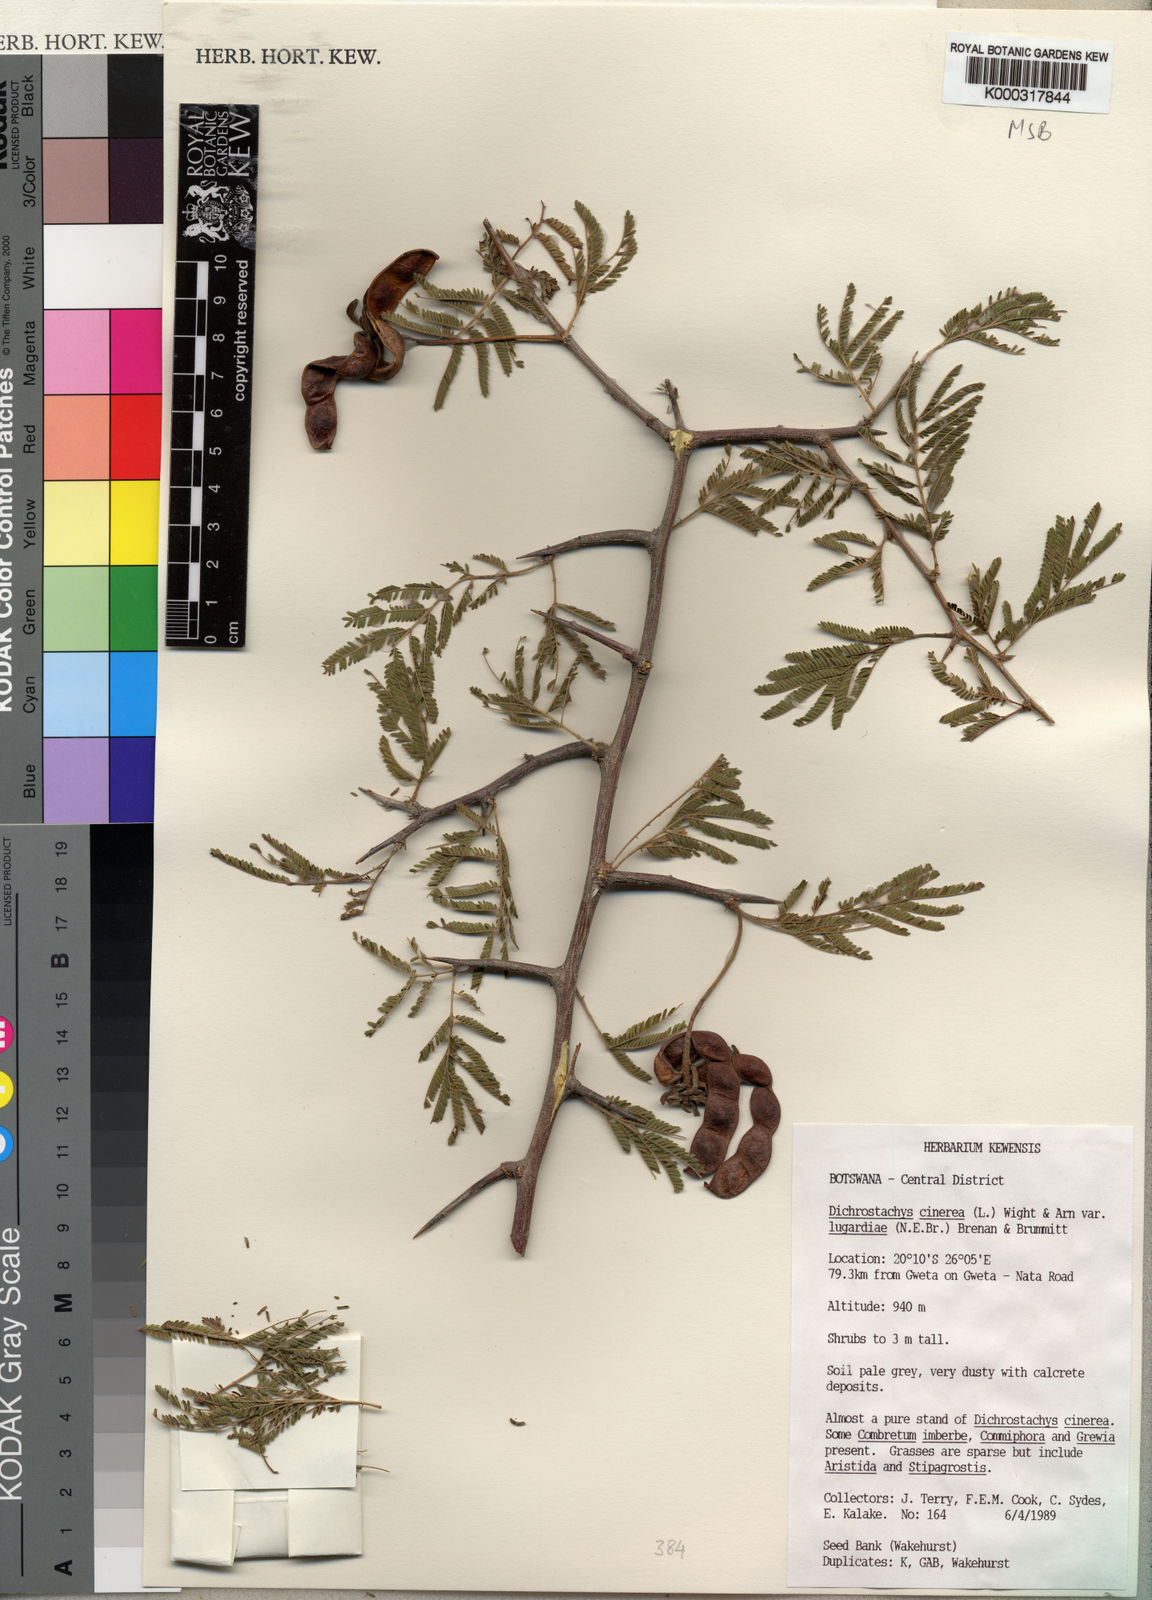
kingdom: Plantae
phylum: Tracheophyta
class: Magnoliopsida
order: Fabales
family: Fabaceae
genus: Dichrostachys
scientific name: Dichrostachys cinerea
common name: Sicklebush
